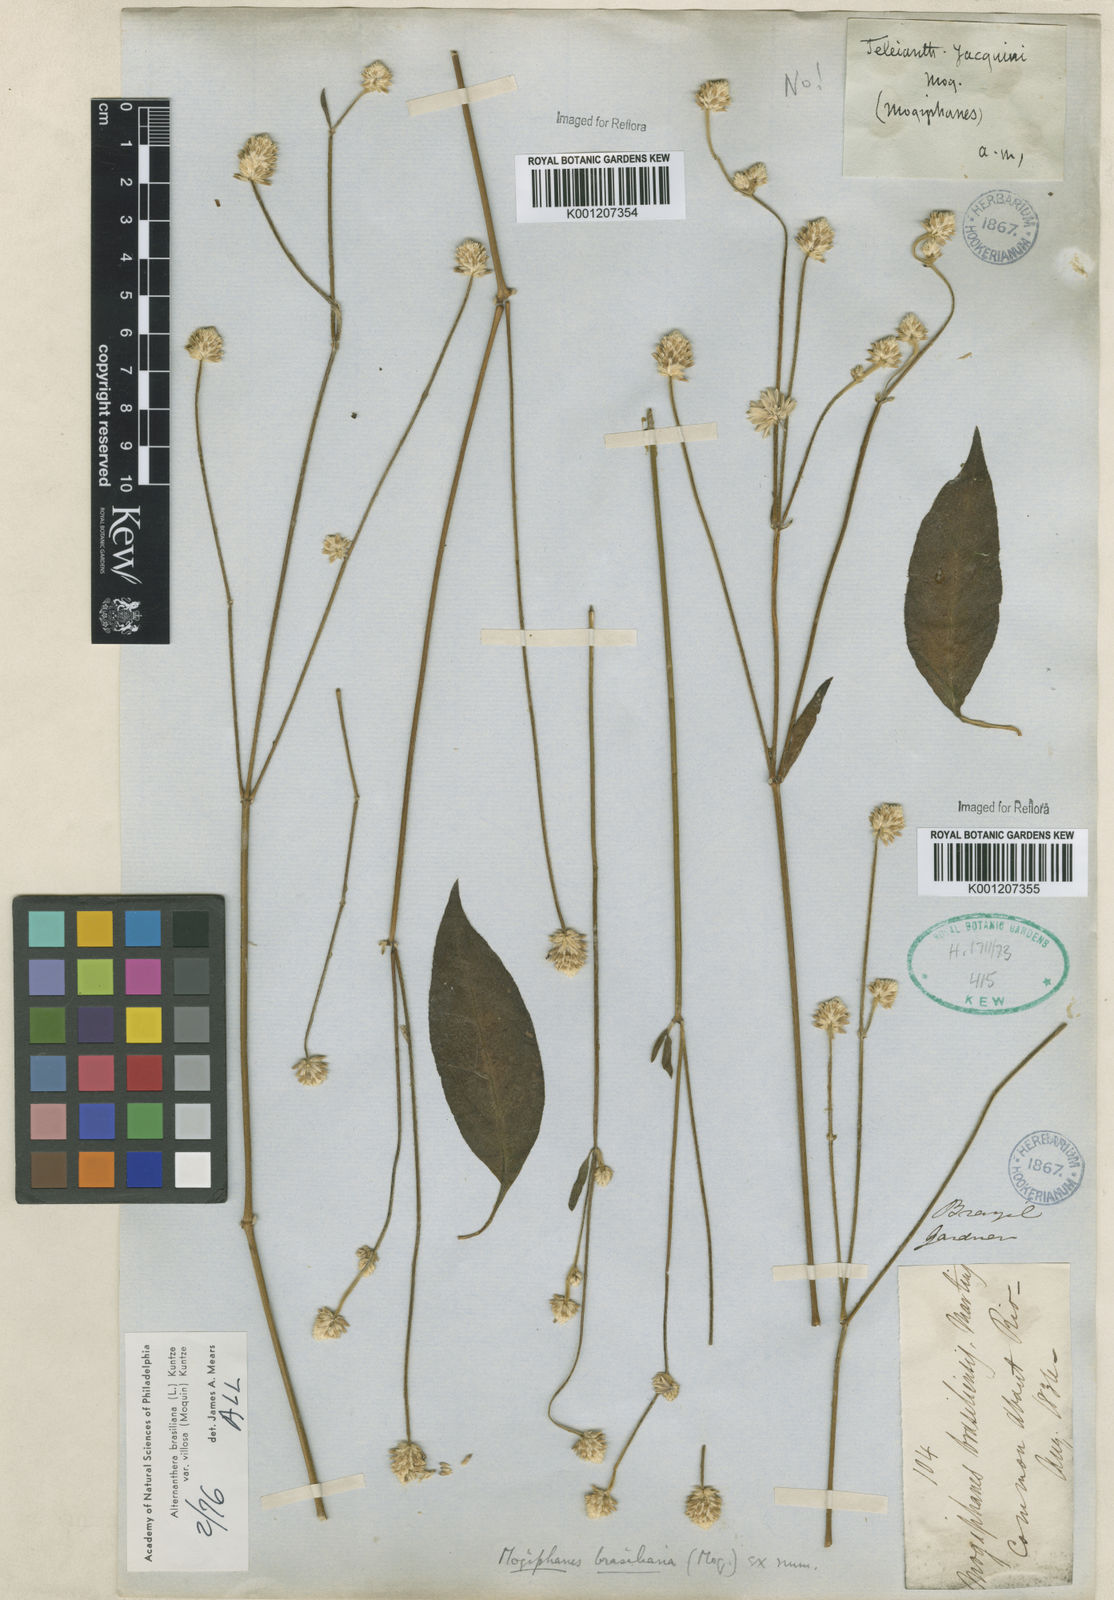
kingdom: Plantae
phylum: Tracheophyta
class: Magnoliopsida
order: Caryophyllales
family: Amaranthaceae
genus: Alternanthera
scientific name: Alternanthera ramosissima
